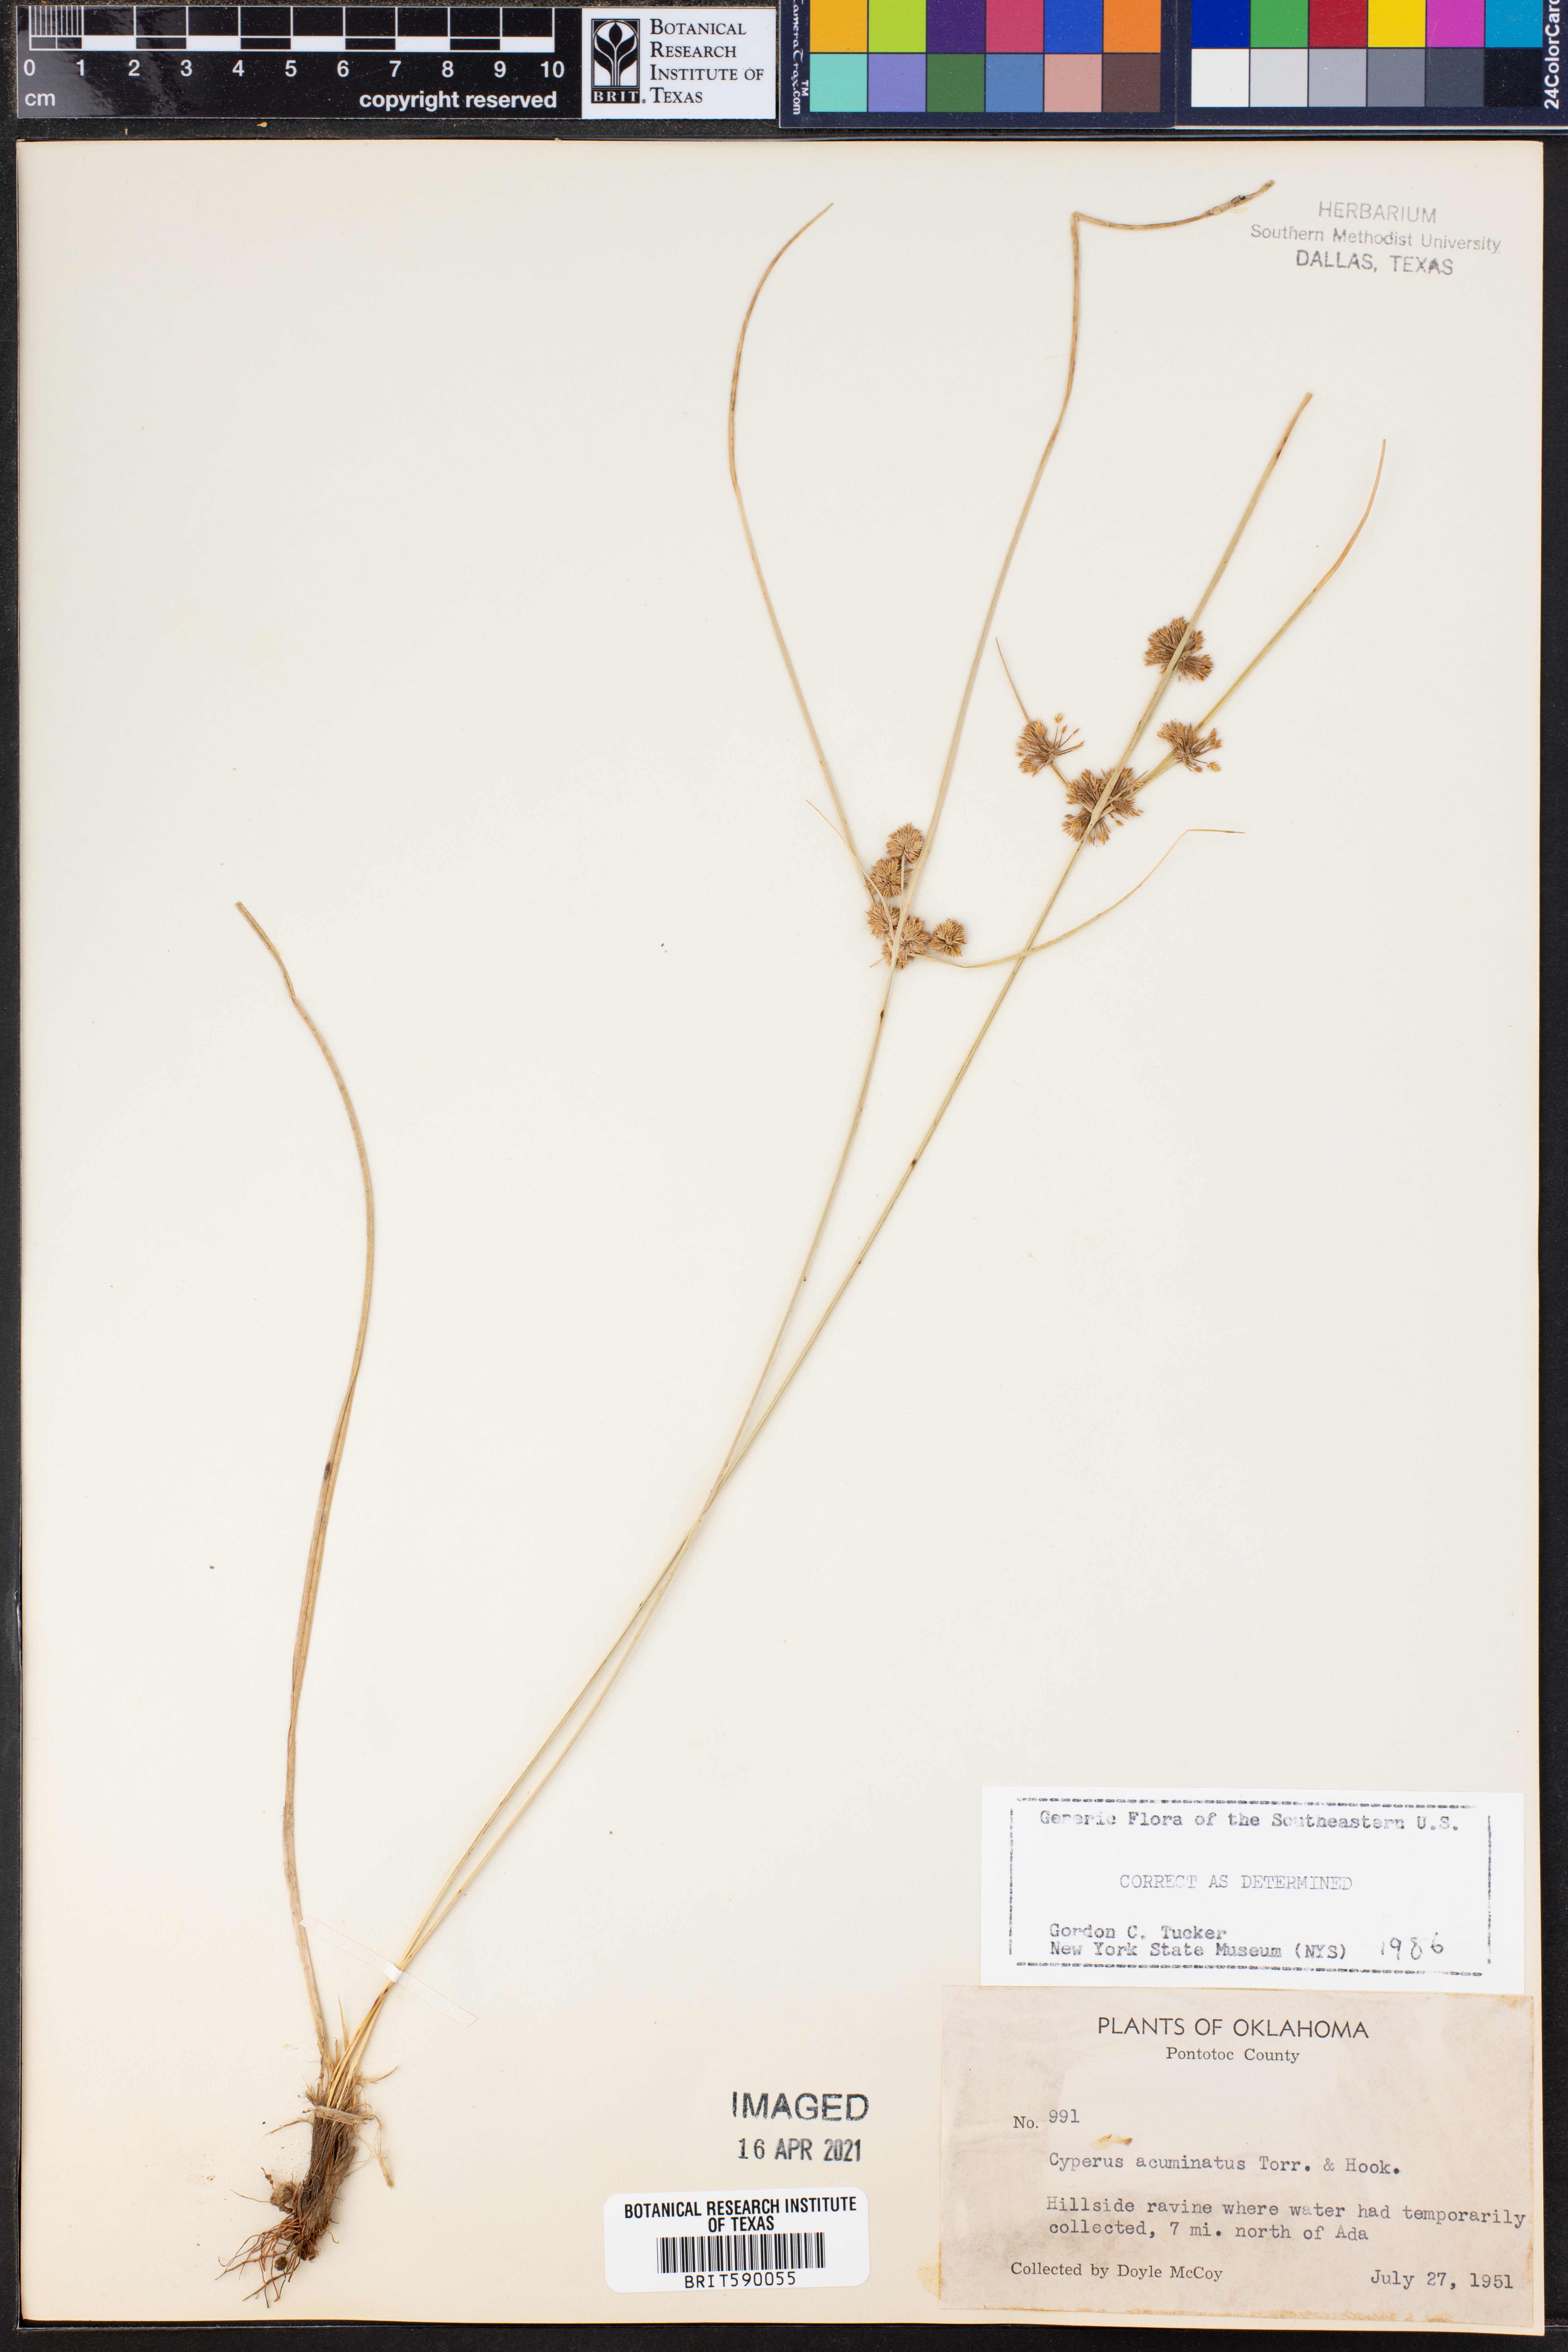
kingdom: Plantae
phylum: Tracheophyta
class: Liliopsida
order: Poales
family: Cyperaceae
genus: Cyperus
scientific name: Cyperus acuminatus
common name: Short-pointed cyperus
